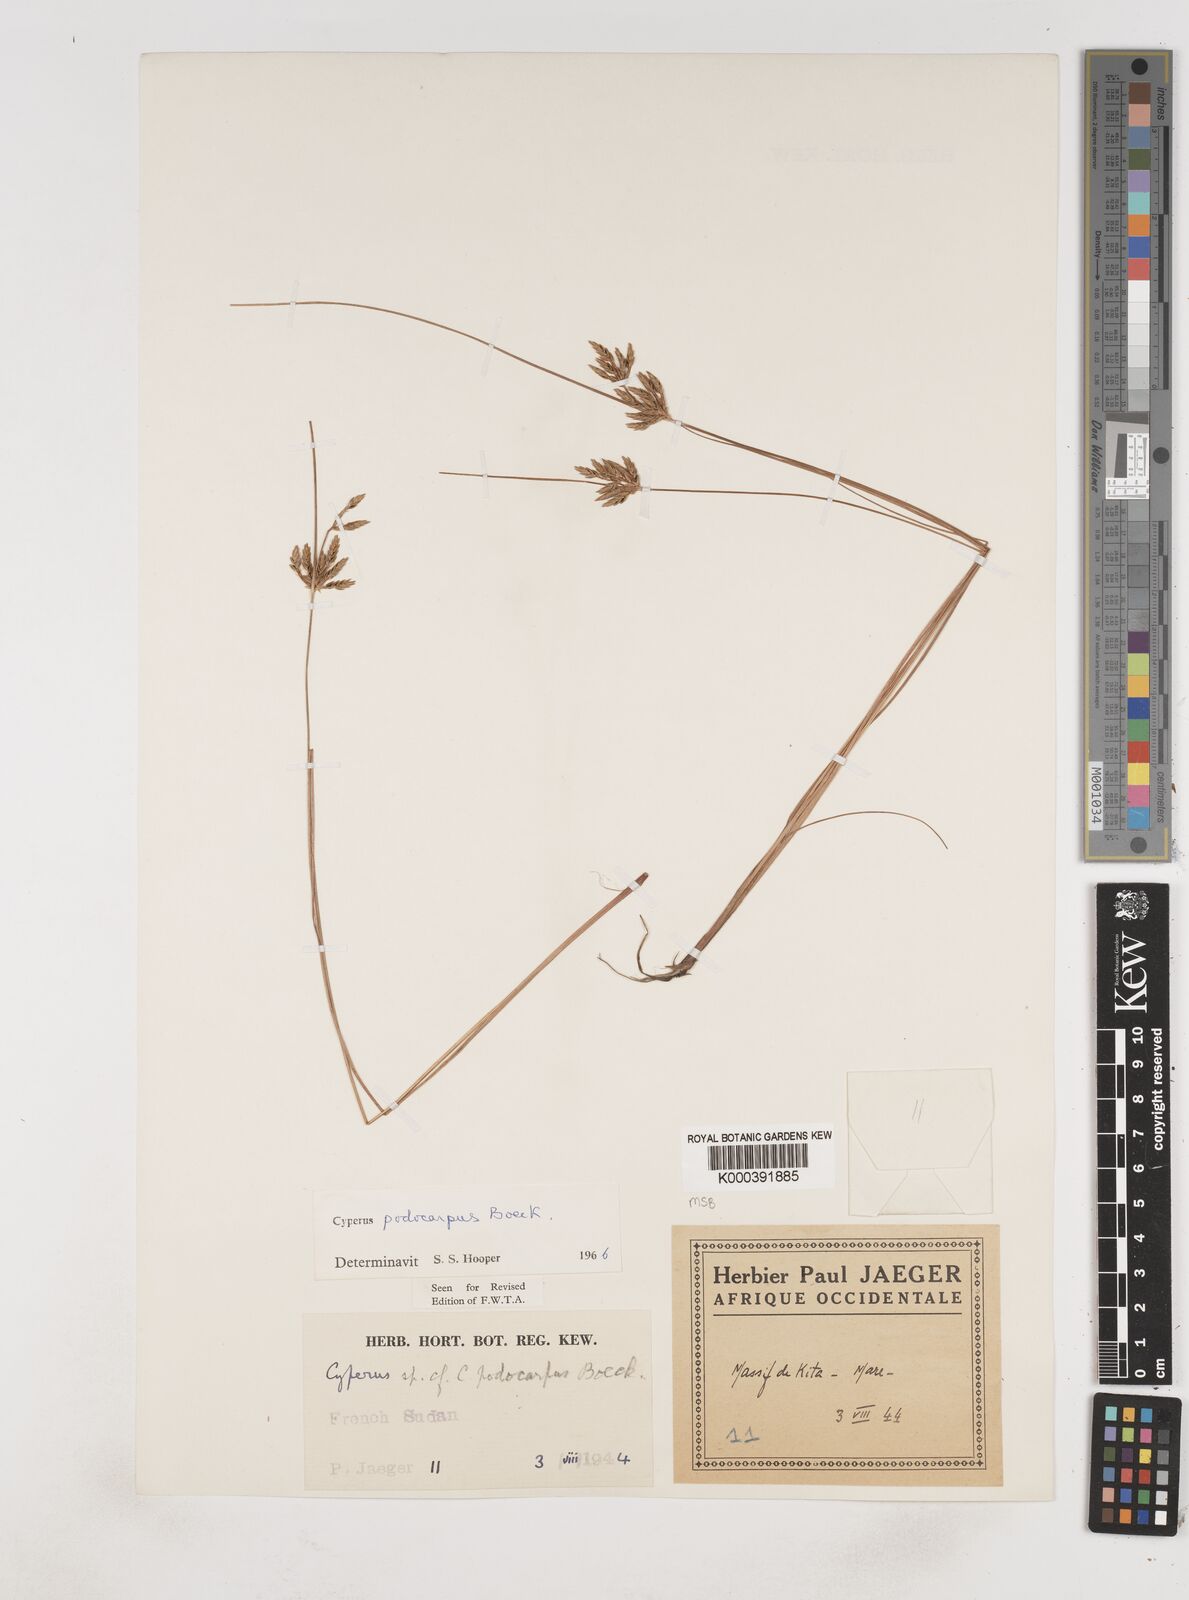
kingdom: Plantae
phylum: Tracheophyta
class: Liliopsida
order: Poales
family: Cyperaceae
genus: Cyperus
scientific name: Cyperus podocarpus
